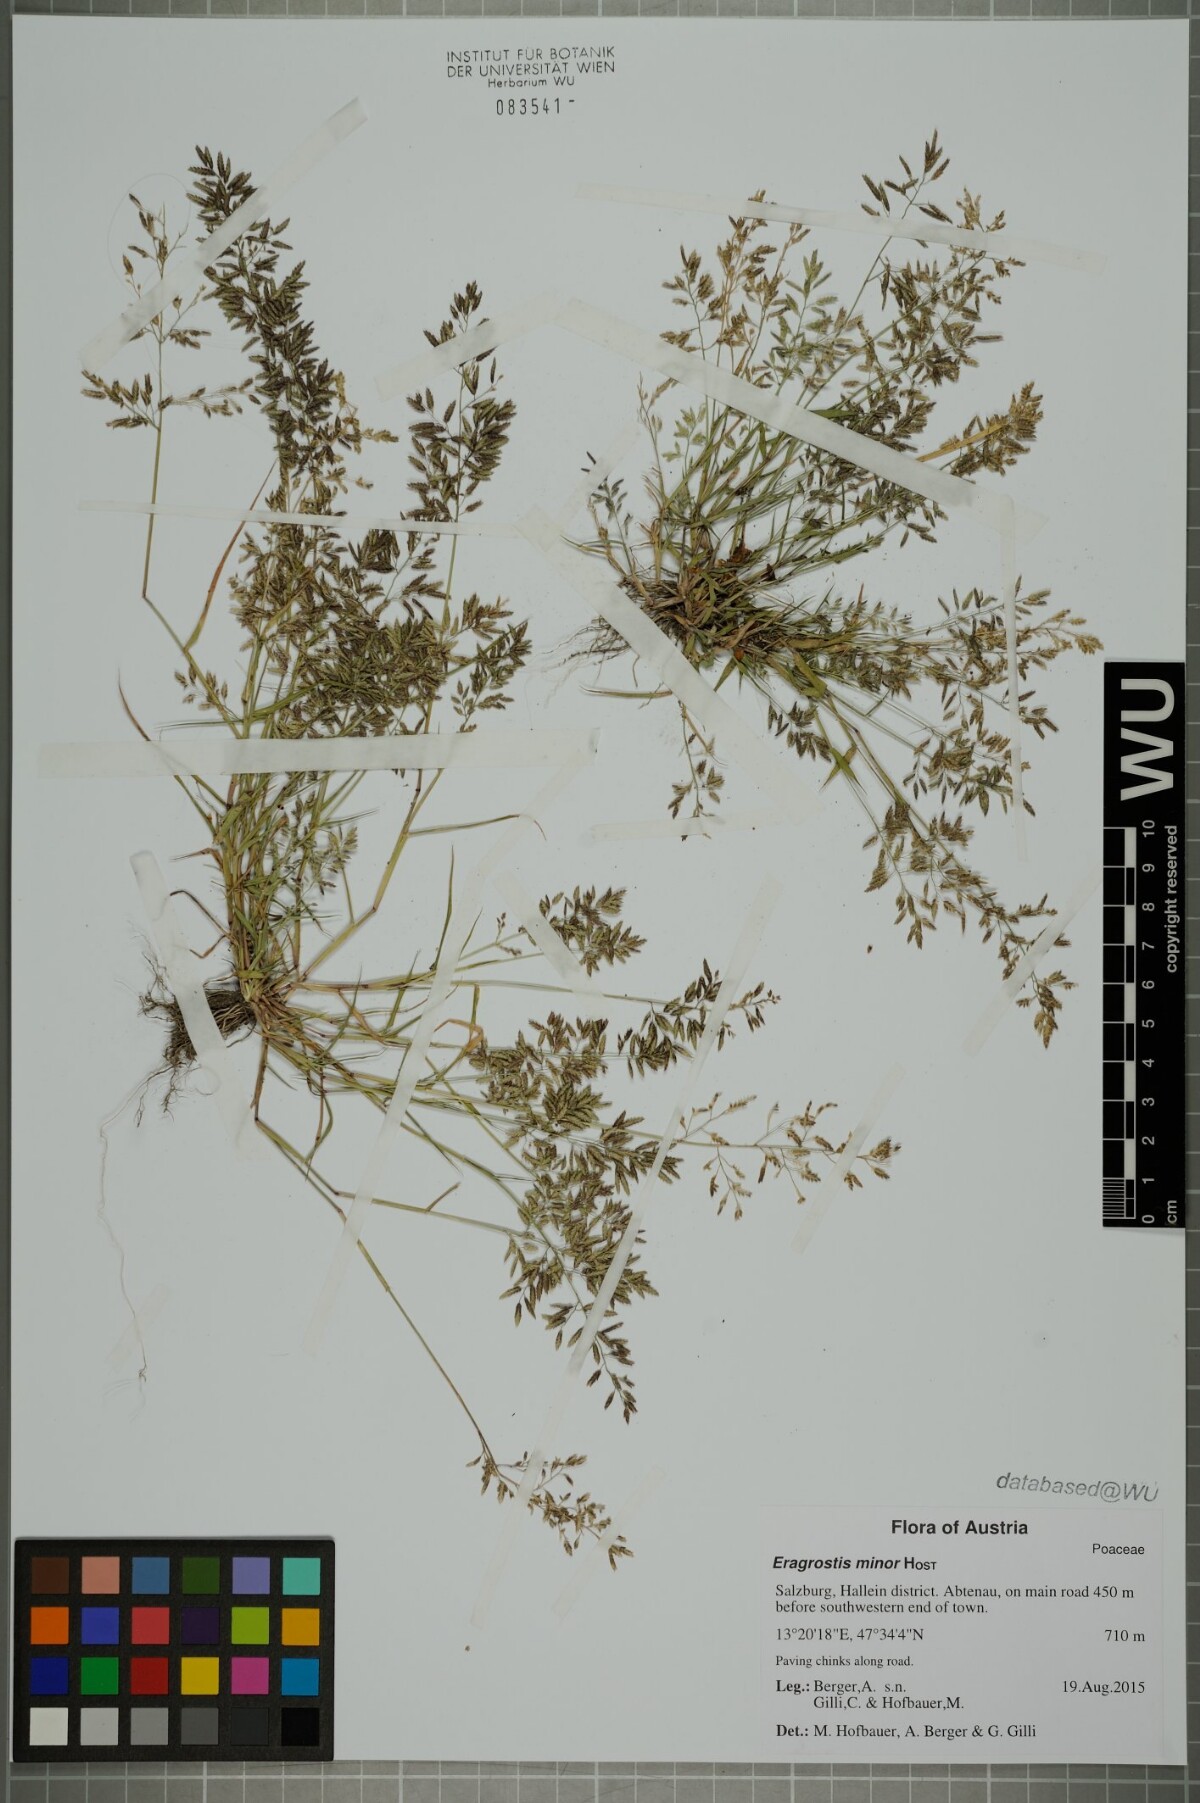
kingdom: Plantae
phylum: Tracheophyta
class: Liliopsida
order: Poales
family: Poaceae
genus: Eragrostis
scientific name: Eragrostis minor
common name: Small love-grass
